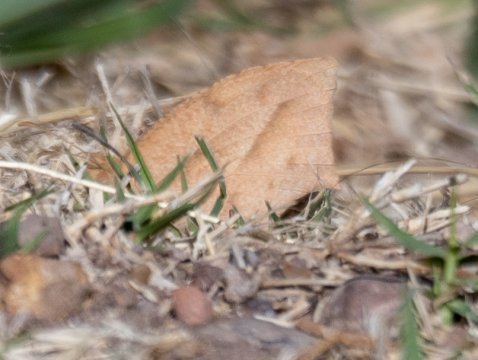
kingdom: Animalia
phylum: Arthropoda
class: Insecta
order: Lepidoptera
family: Pieridae
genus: Eurema
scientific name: Eurema mexicana
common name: Mexican Yellow
